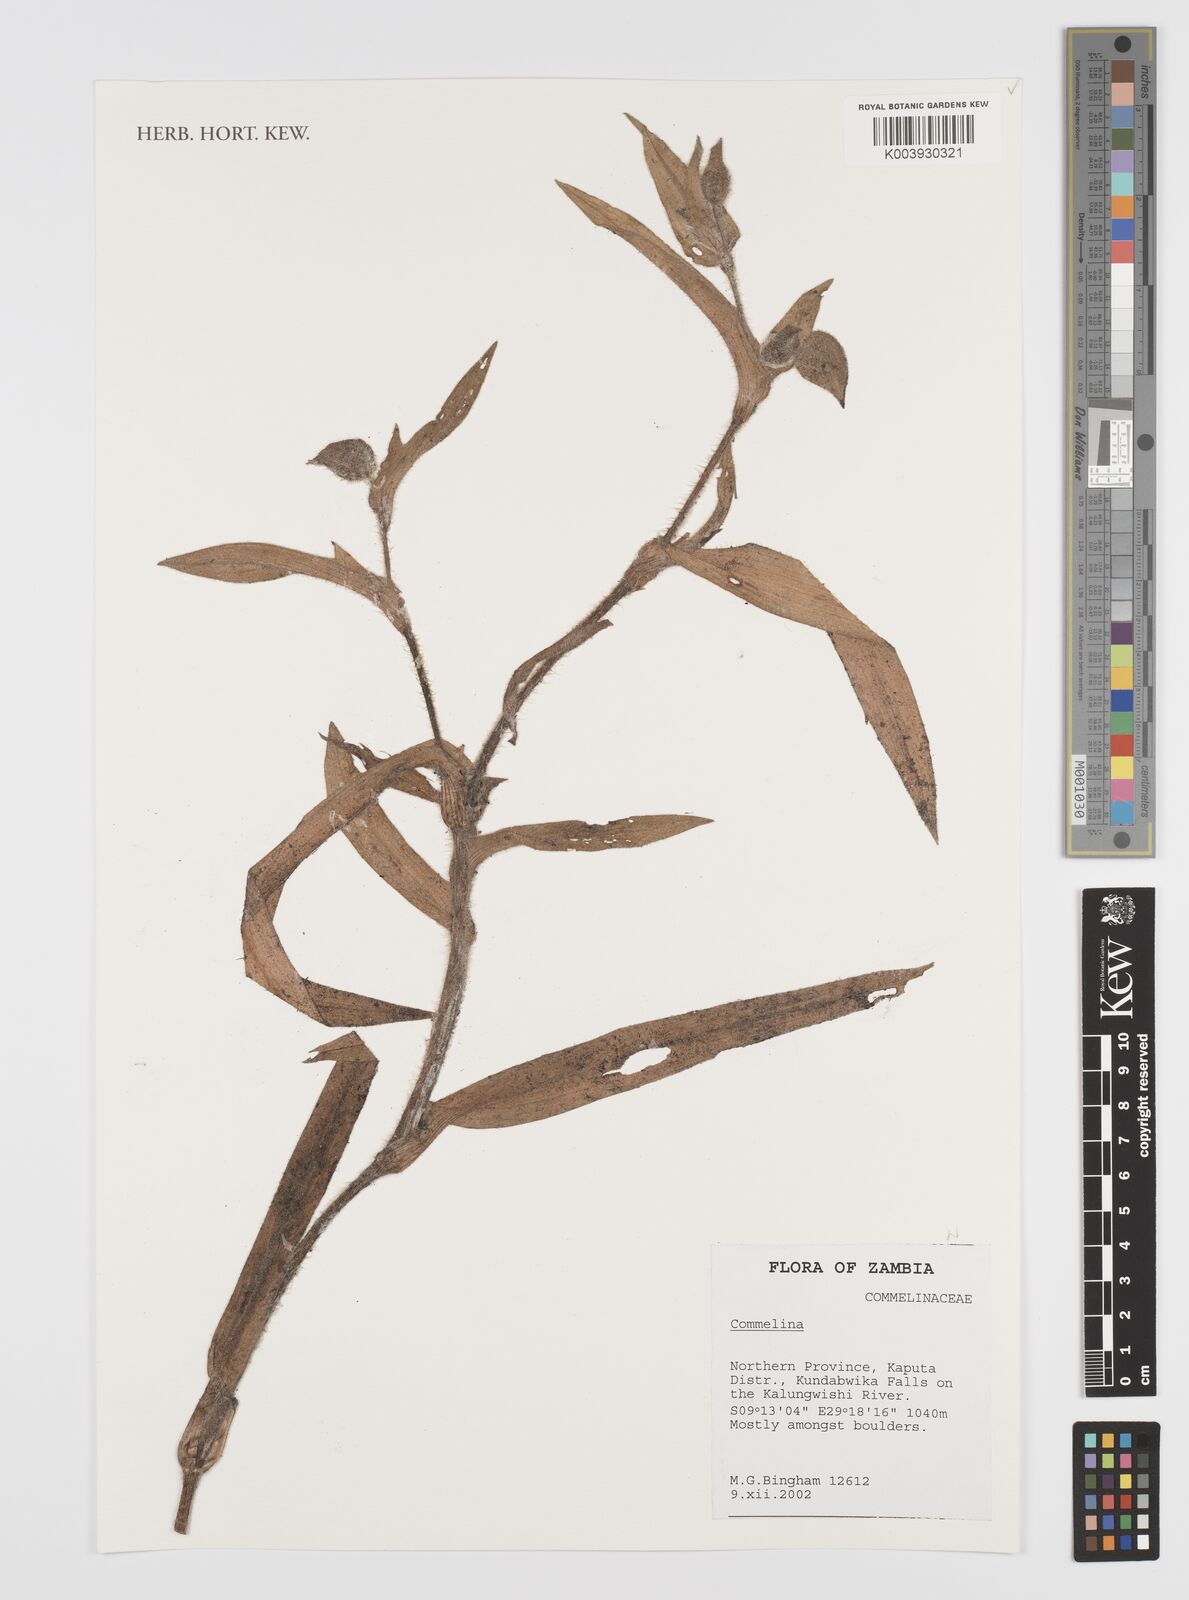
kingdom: Plantae
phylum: Tracheophyta
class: Liliopsida
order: Commelinales
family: Commelinaceae
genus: Commelina
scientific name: Commelina cecilae
